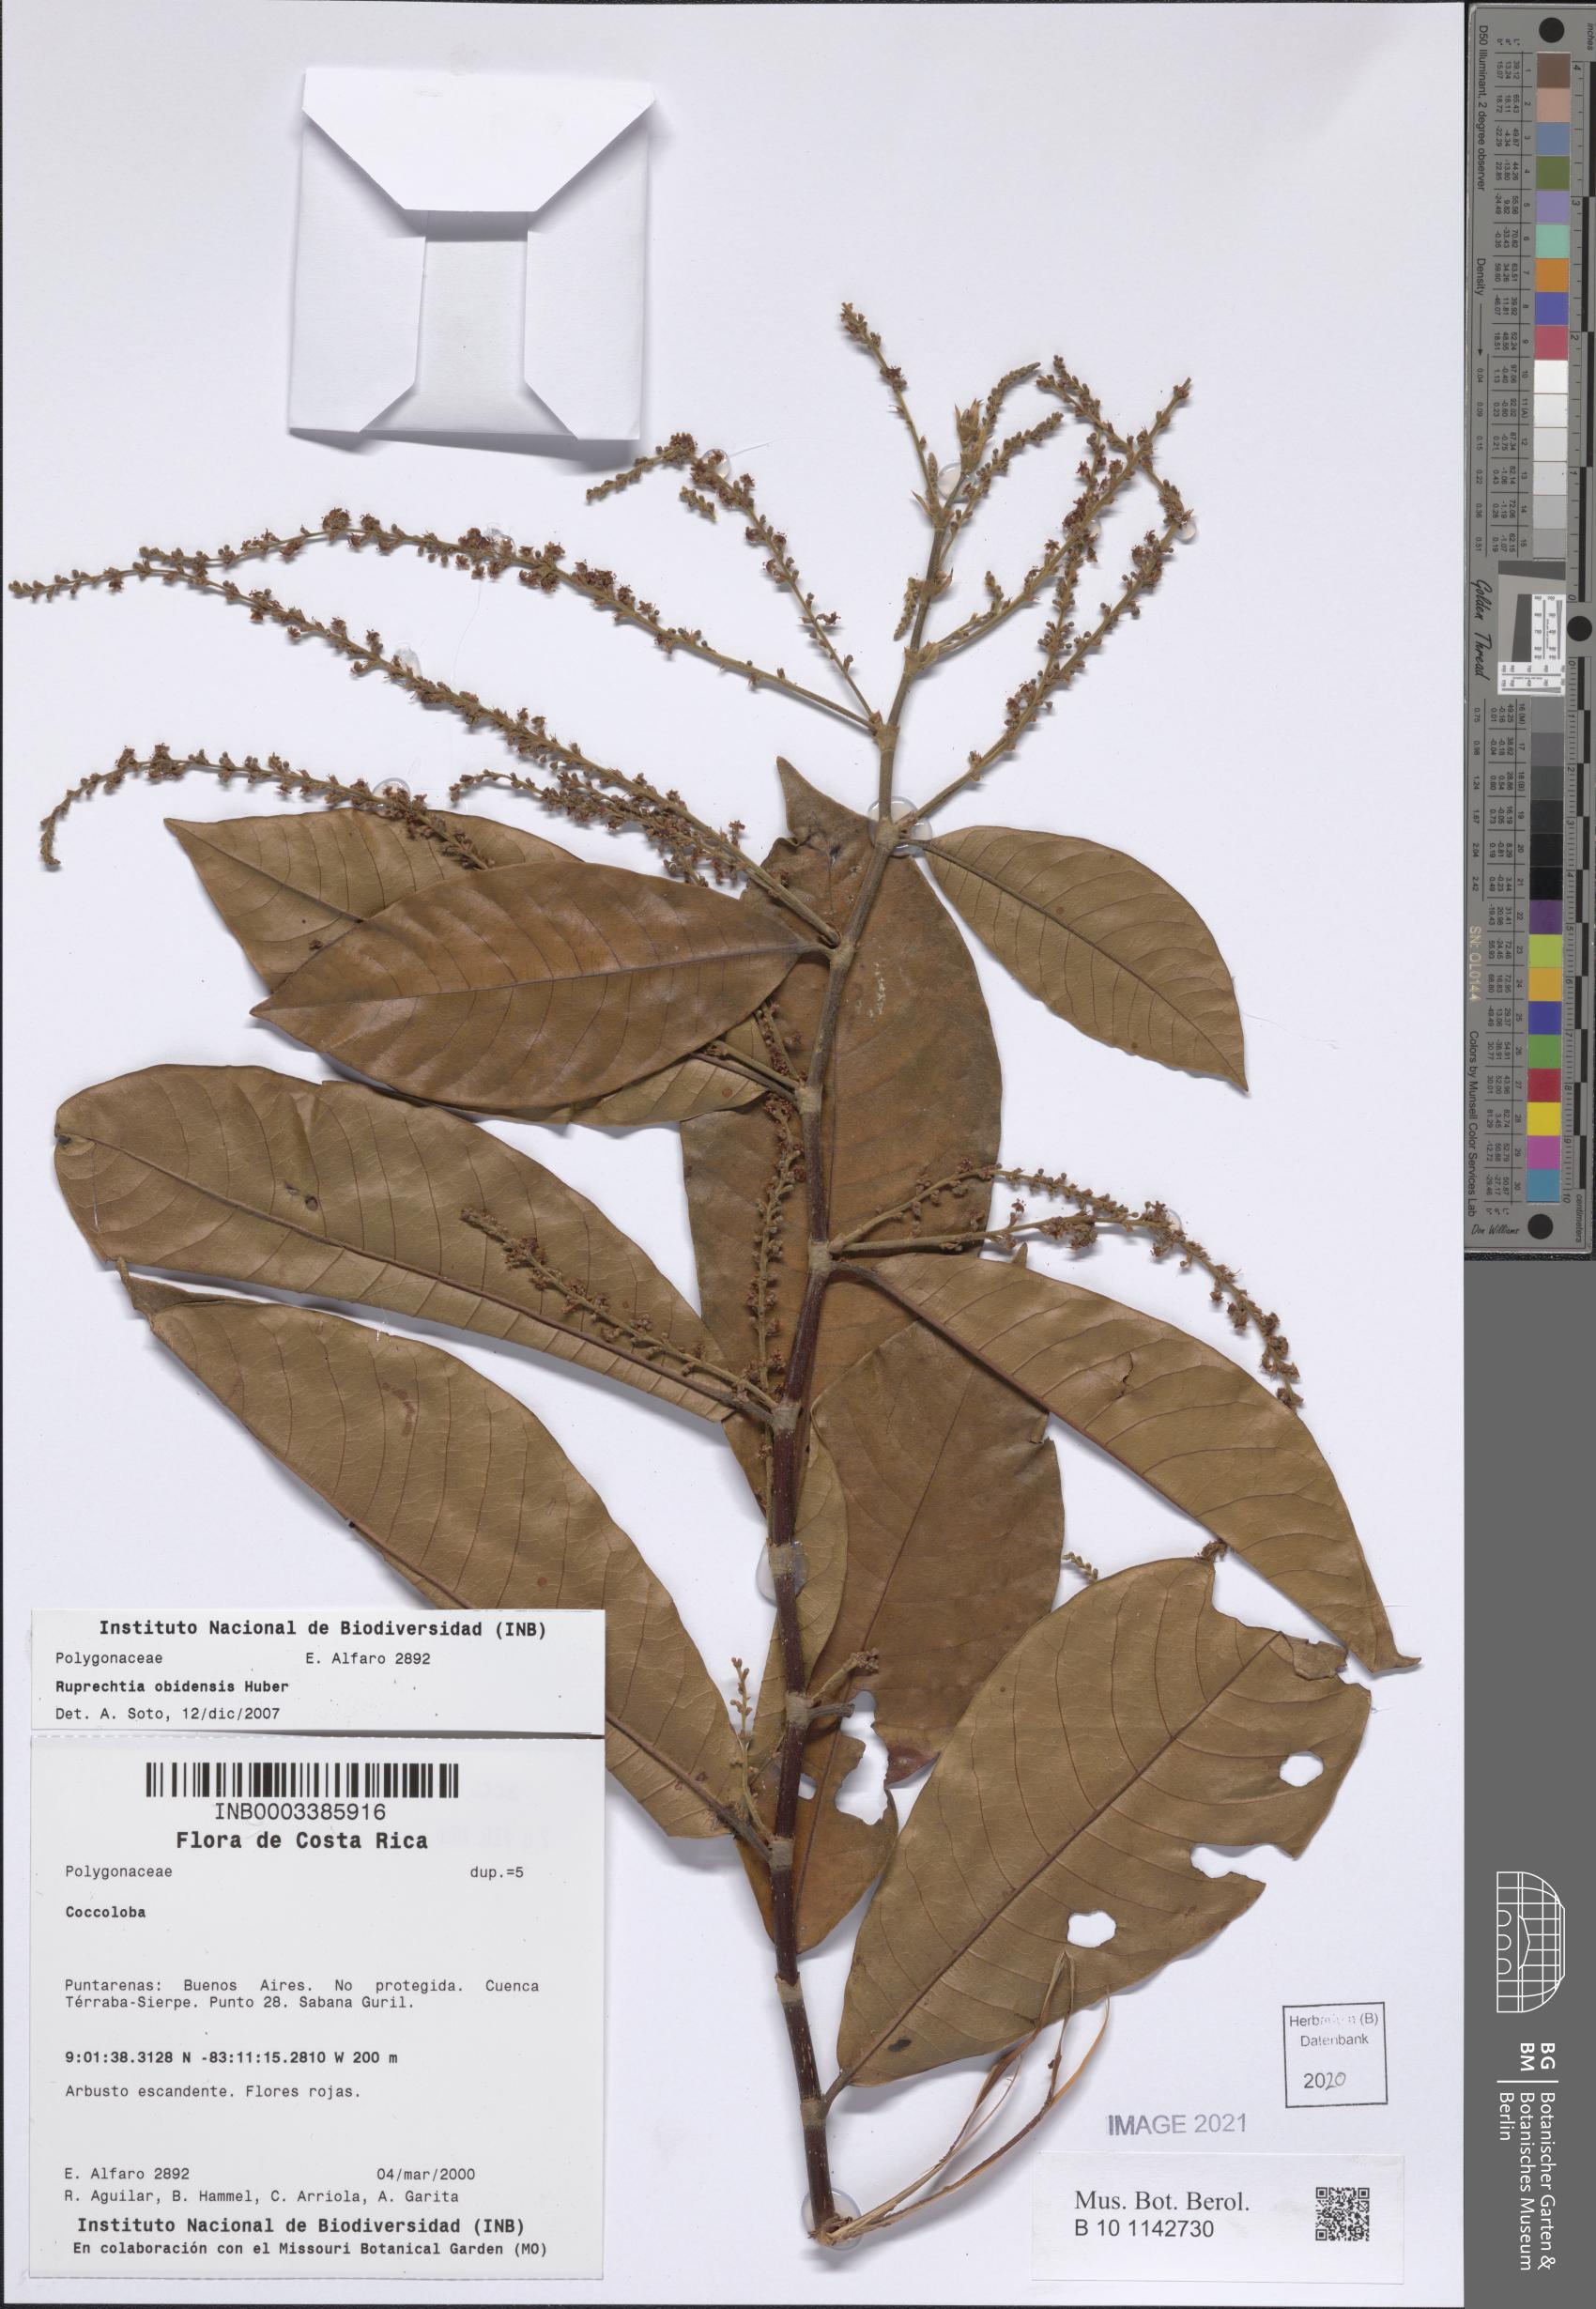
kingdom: Plantae
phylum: Tracheophyta
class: Magnoliopsida
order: Caryophyllales
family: Polygonaceae
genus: Magoniella
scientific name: Magoniella obidensis
